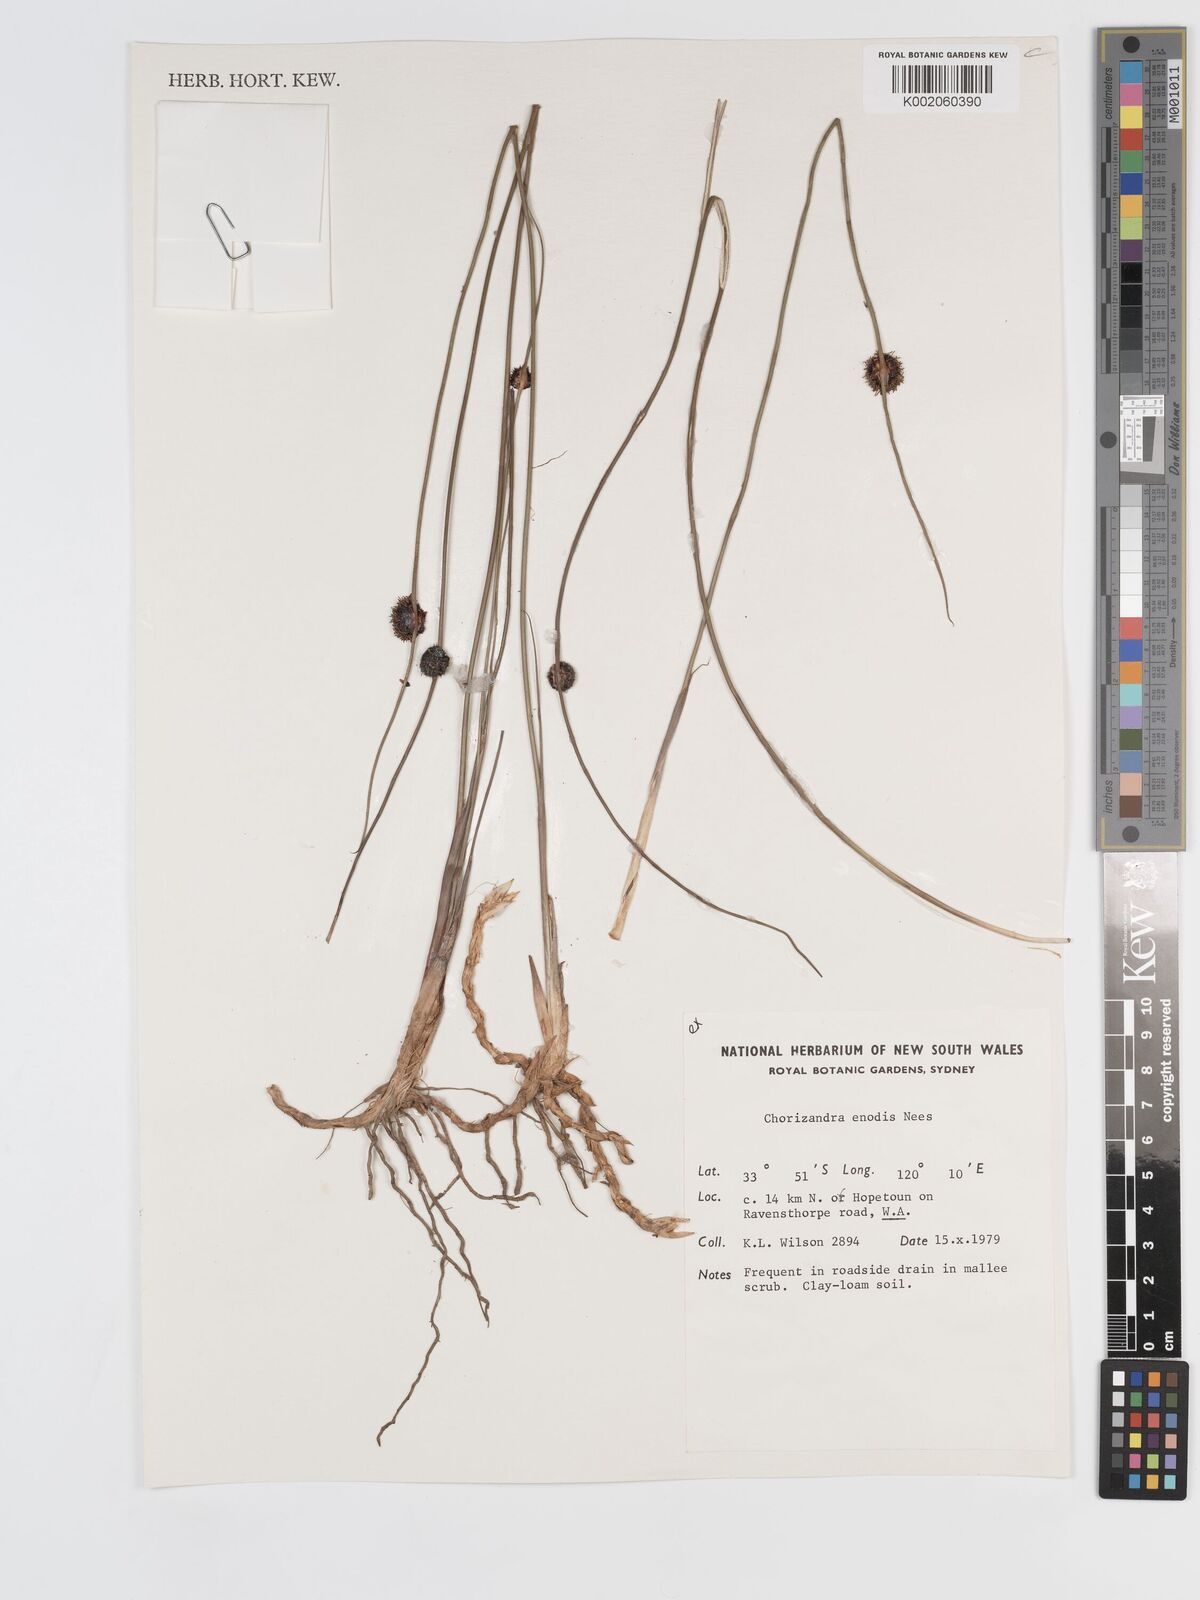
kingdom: Plantae
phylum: Tracheophyta
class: Liliopsida
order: Poales
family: Cyperaceae
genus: Chorizandra
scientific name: Chorizandra enodis
